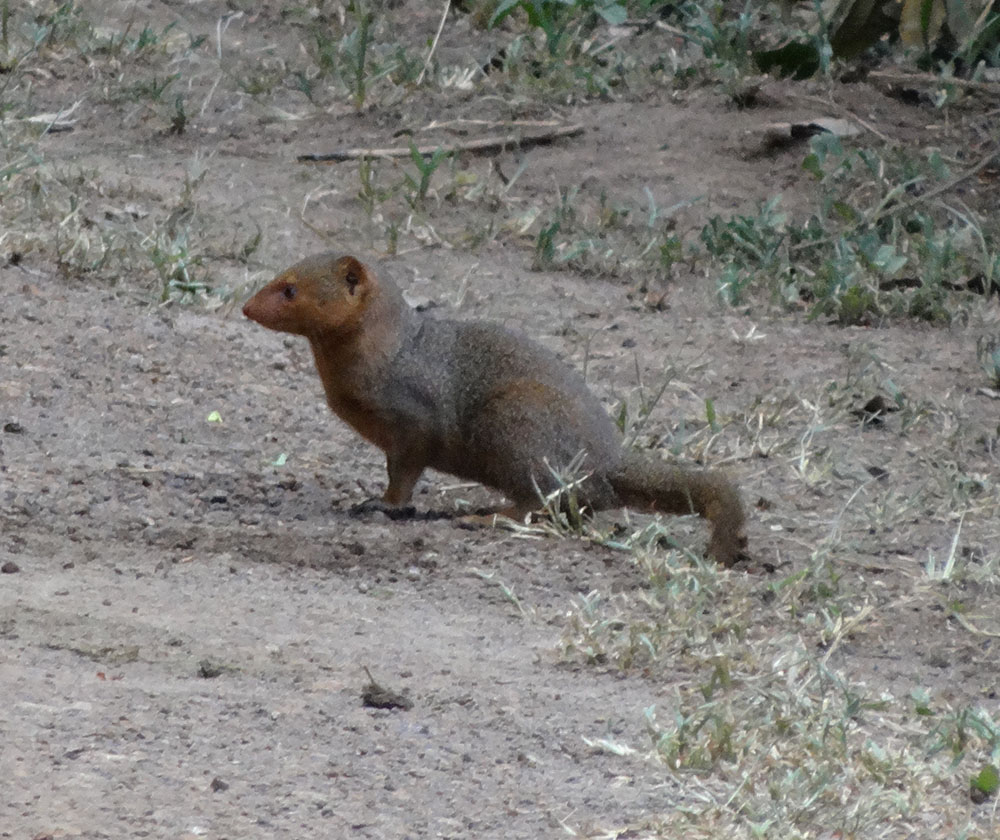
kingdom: Animalia
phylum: Chordata
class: Mammalia
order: Carnivora
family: Herpestidae
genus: Helogale
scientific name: Helogale parvula
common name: Common dwarf mongoose
